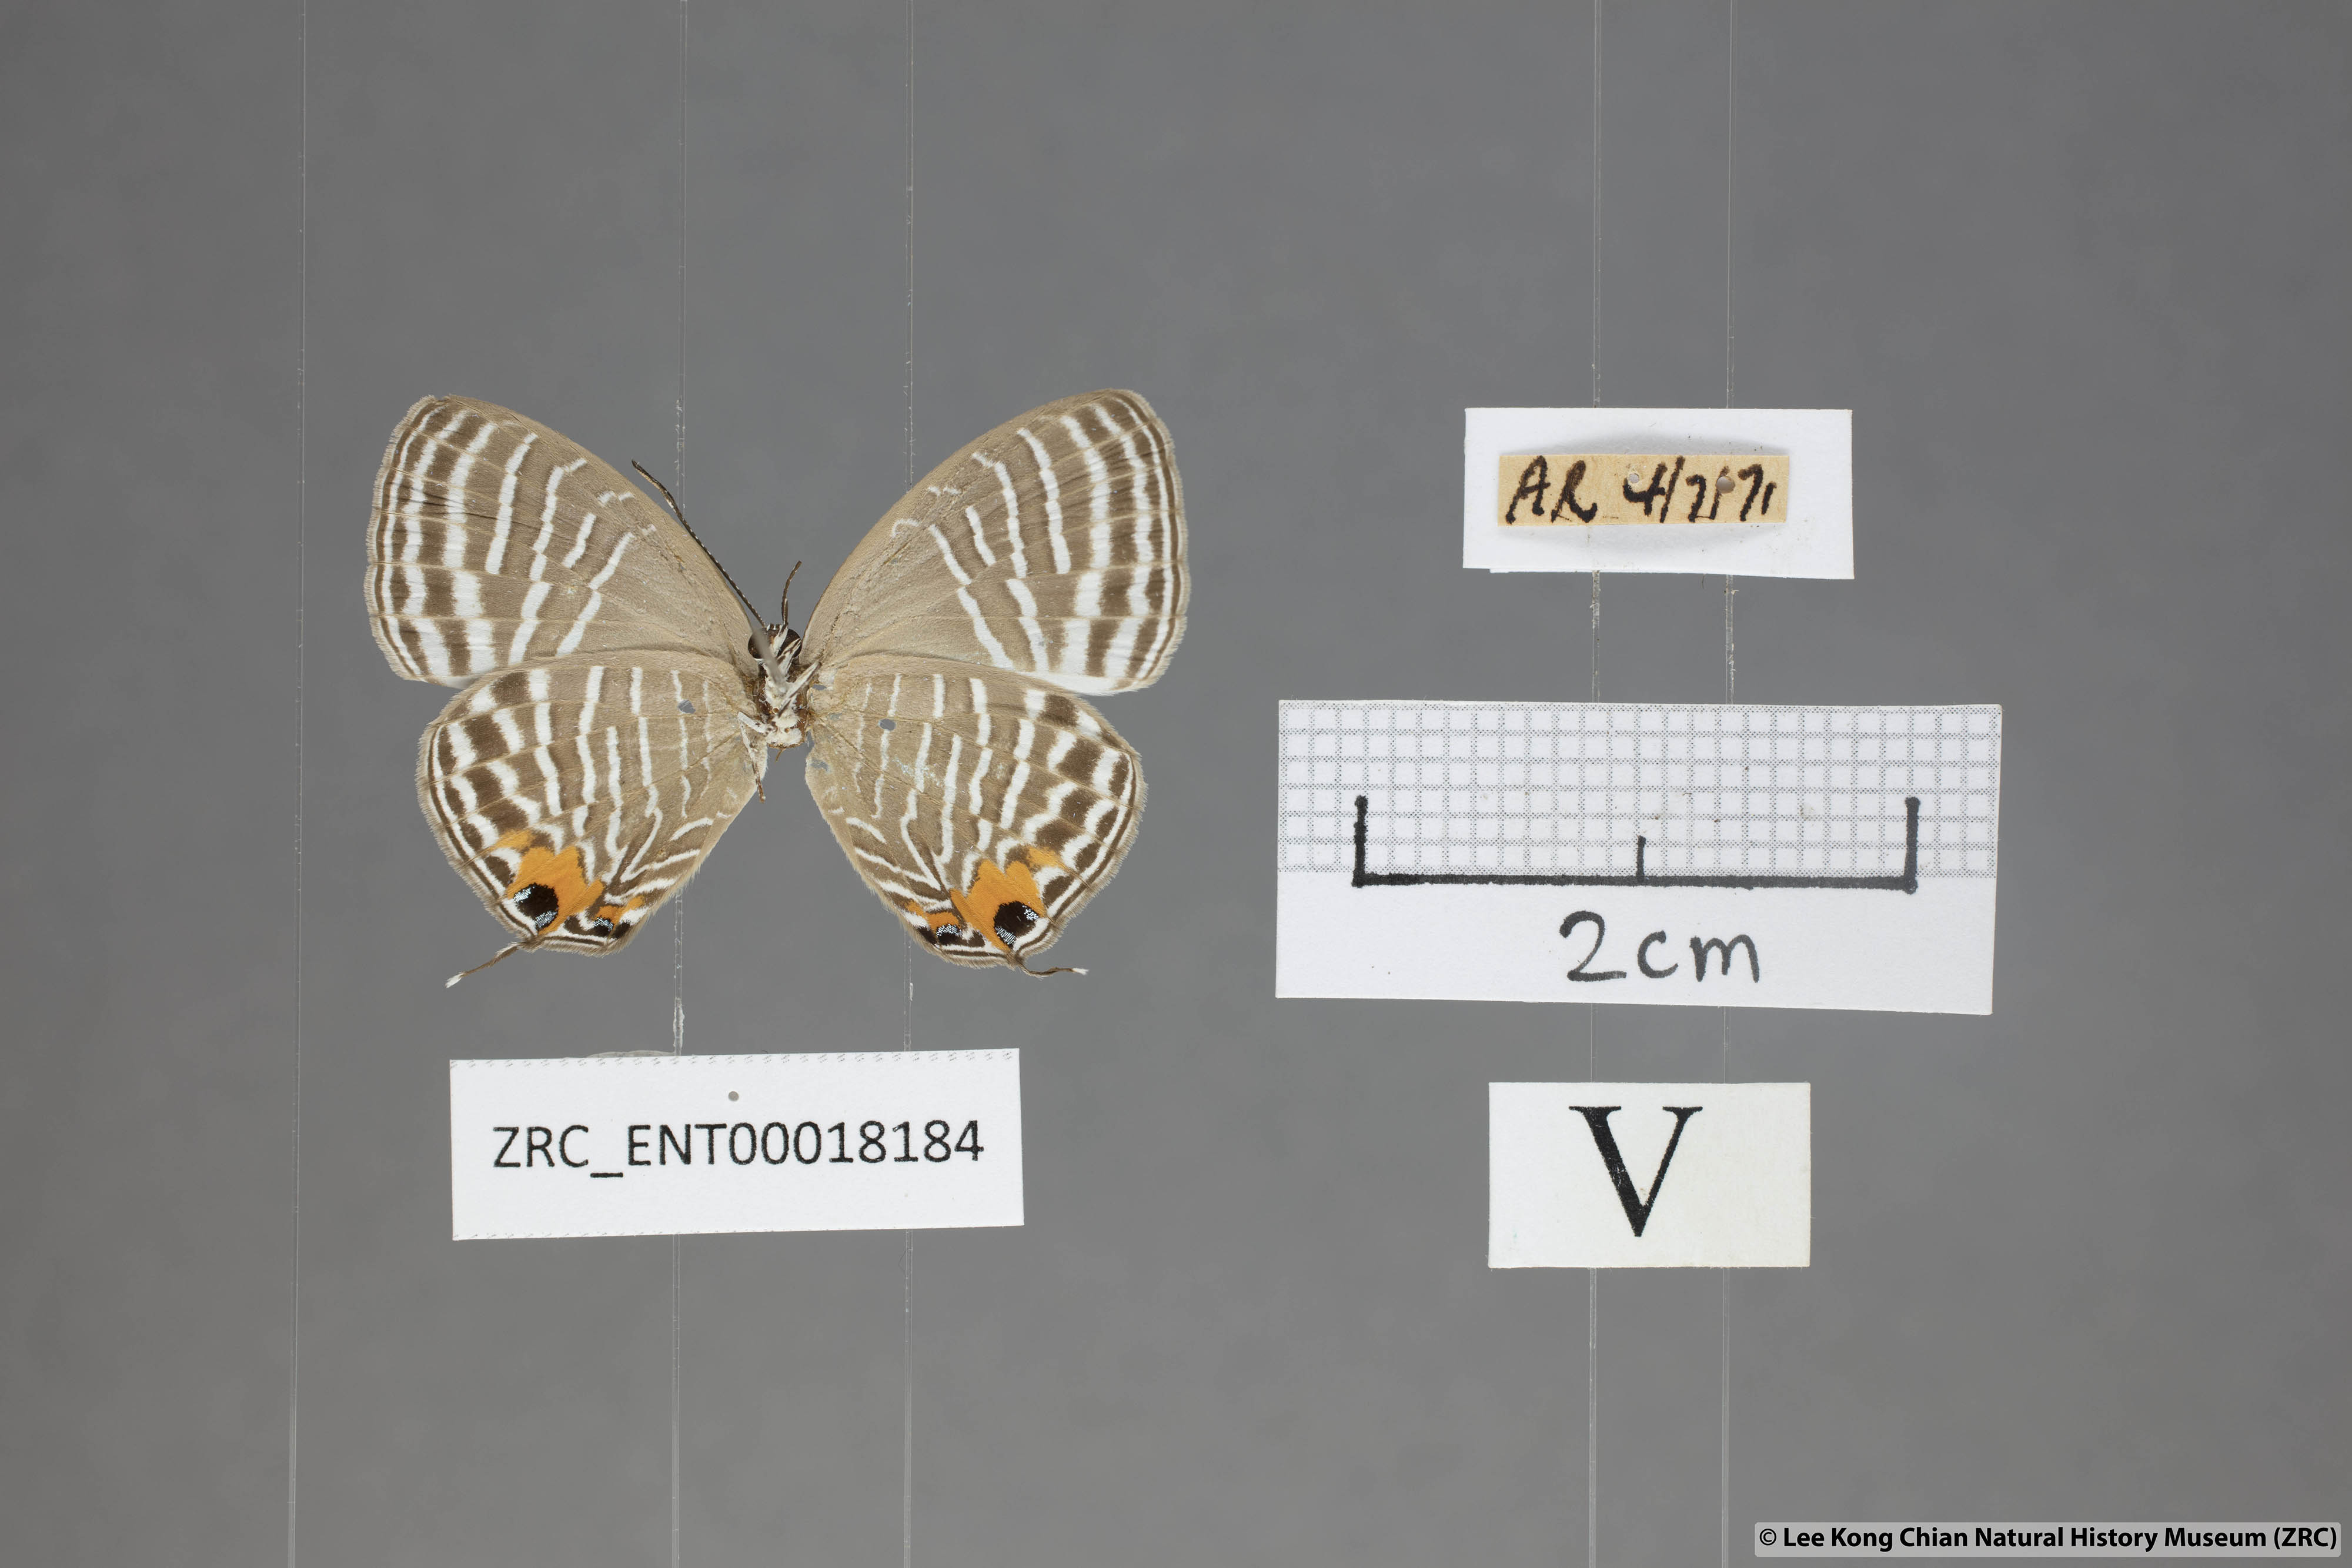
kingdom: Animalia
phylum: Arthropoda
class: Insecta
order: Lepidoptera
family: Lycaenidae
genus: Jamides
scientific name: Jamides pura
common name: White cerulean
